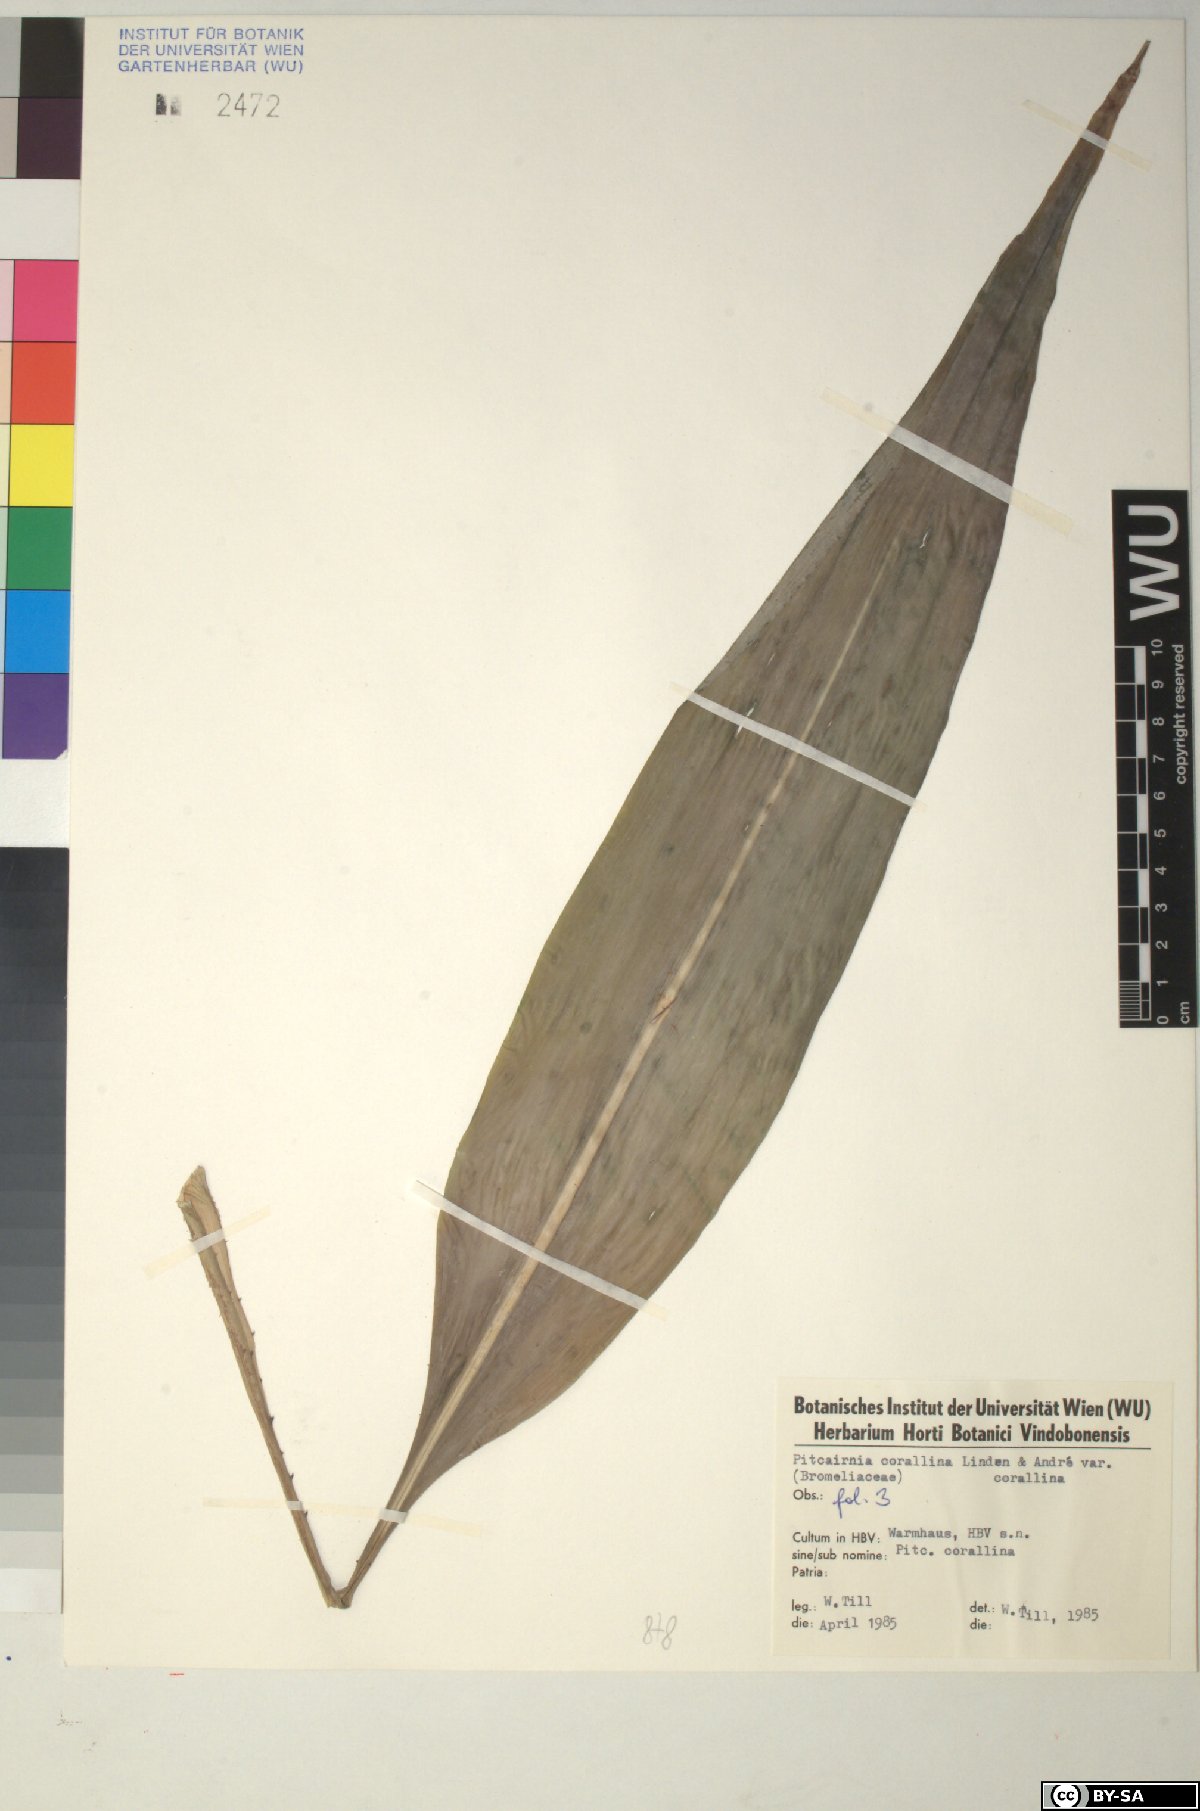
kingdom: Plantae
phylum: Tracheophyta
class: Liliopsida
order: Poales
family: Bromeliaceae
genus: Pitcairnia
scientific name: Pitcairnia
